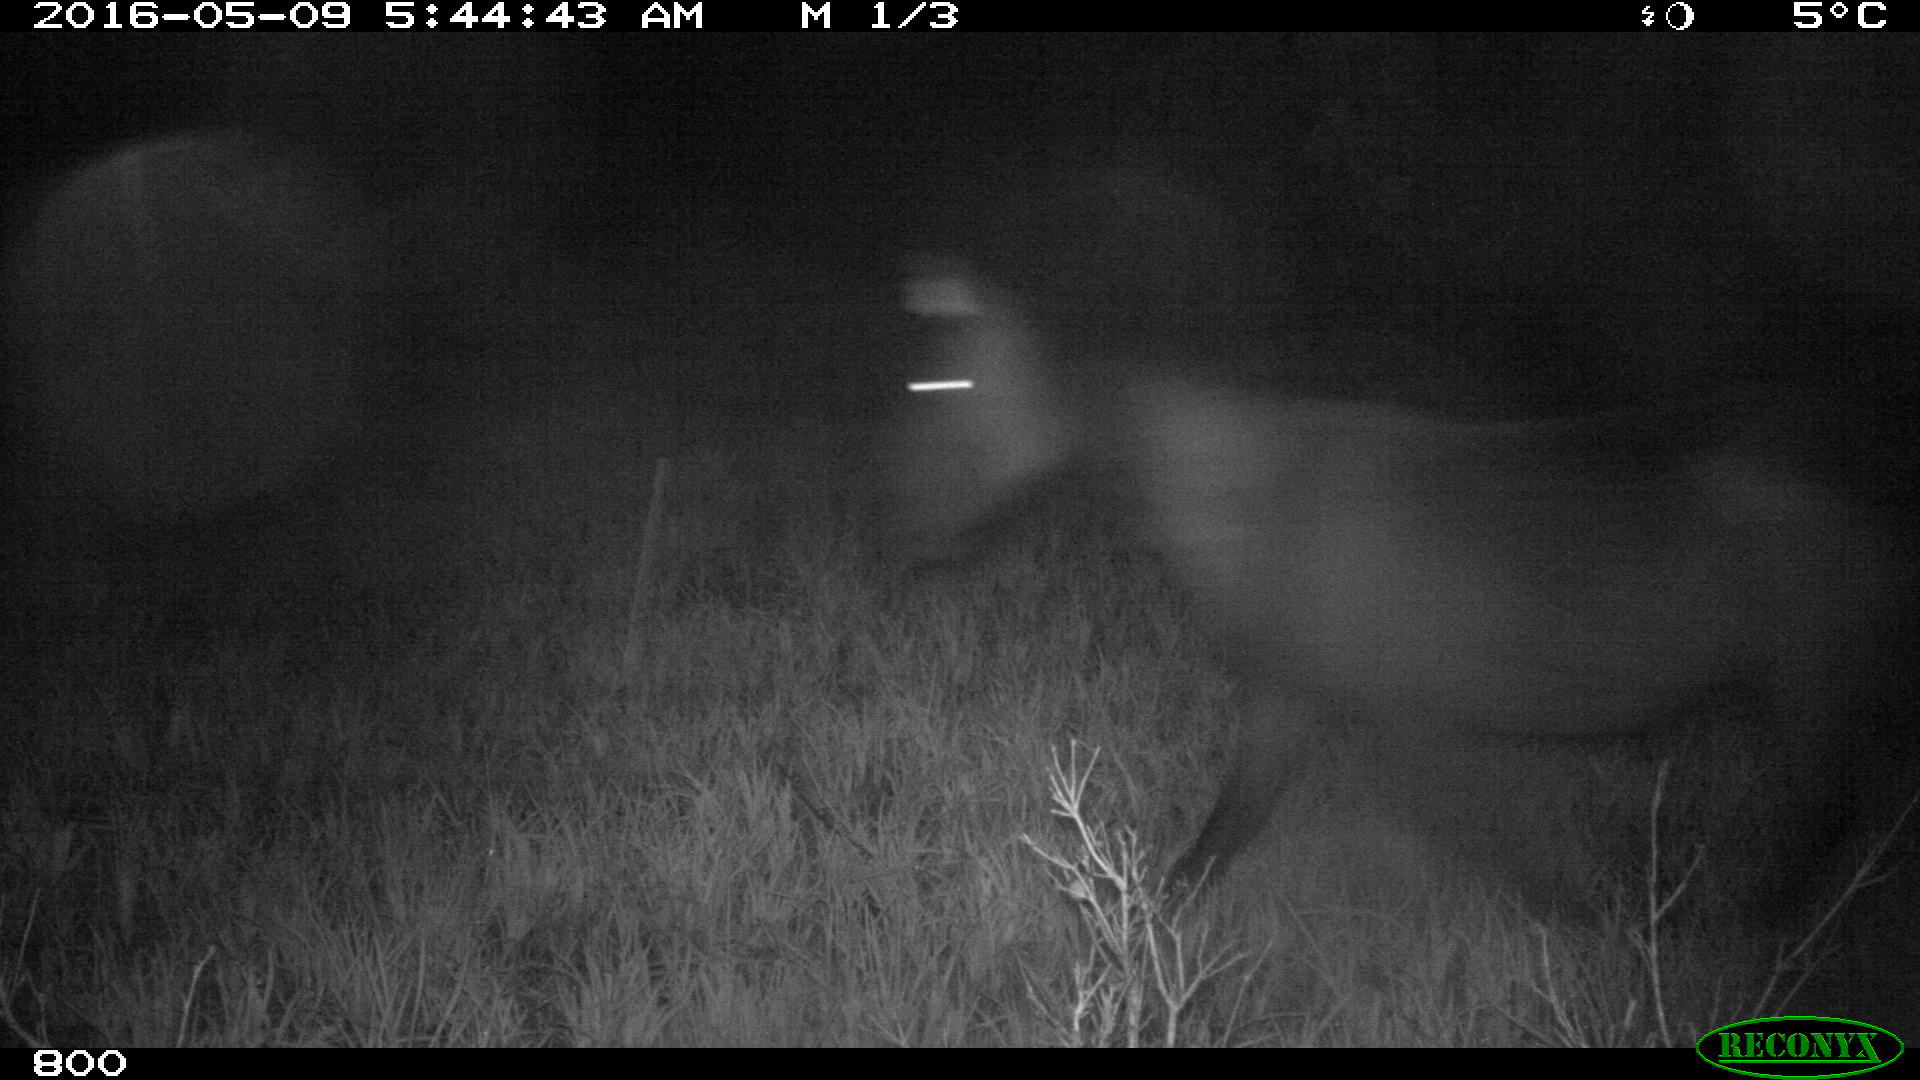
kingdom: Animalia
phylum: Chordata
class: Mammalia
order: Perissodactyla
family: Equidae
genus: Equus
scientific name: Equus caballus
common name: Horse
